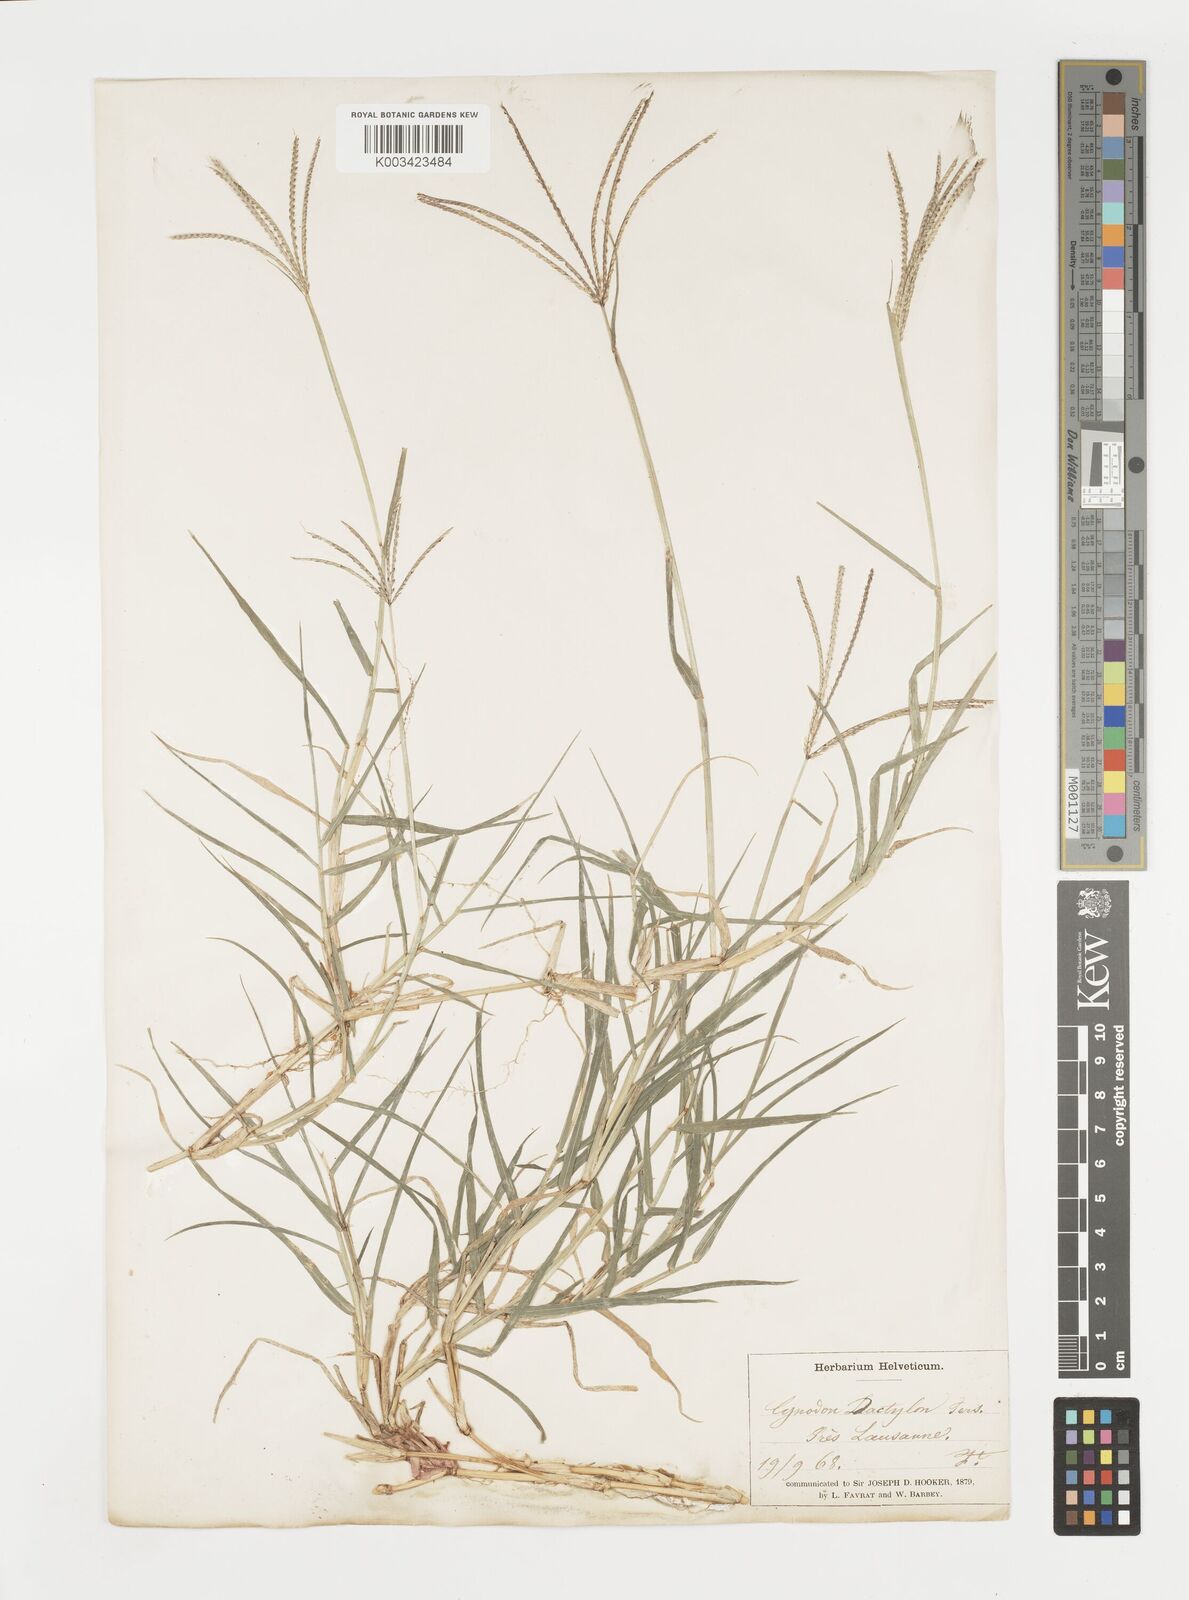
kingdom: Plantae
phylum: Tracheophyta
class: Liliopsida
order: Poales
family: Poaceae
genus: Cynodon
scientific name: Cynodon dactylon
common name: Bermuda grass
